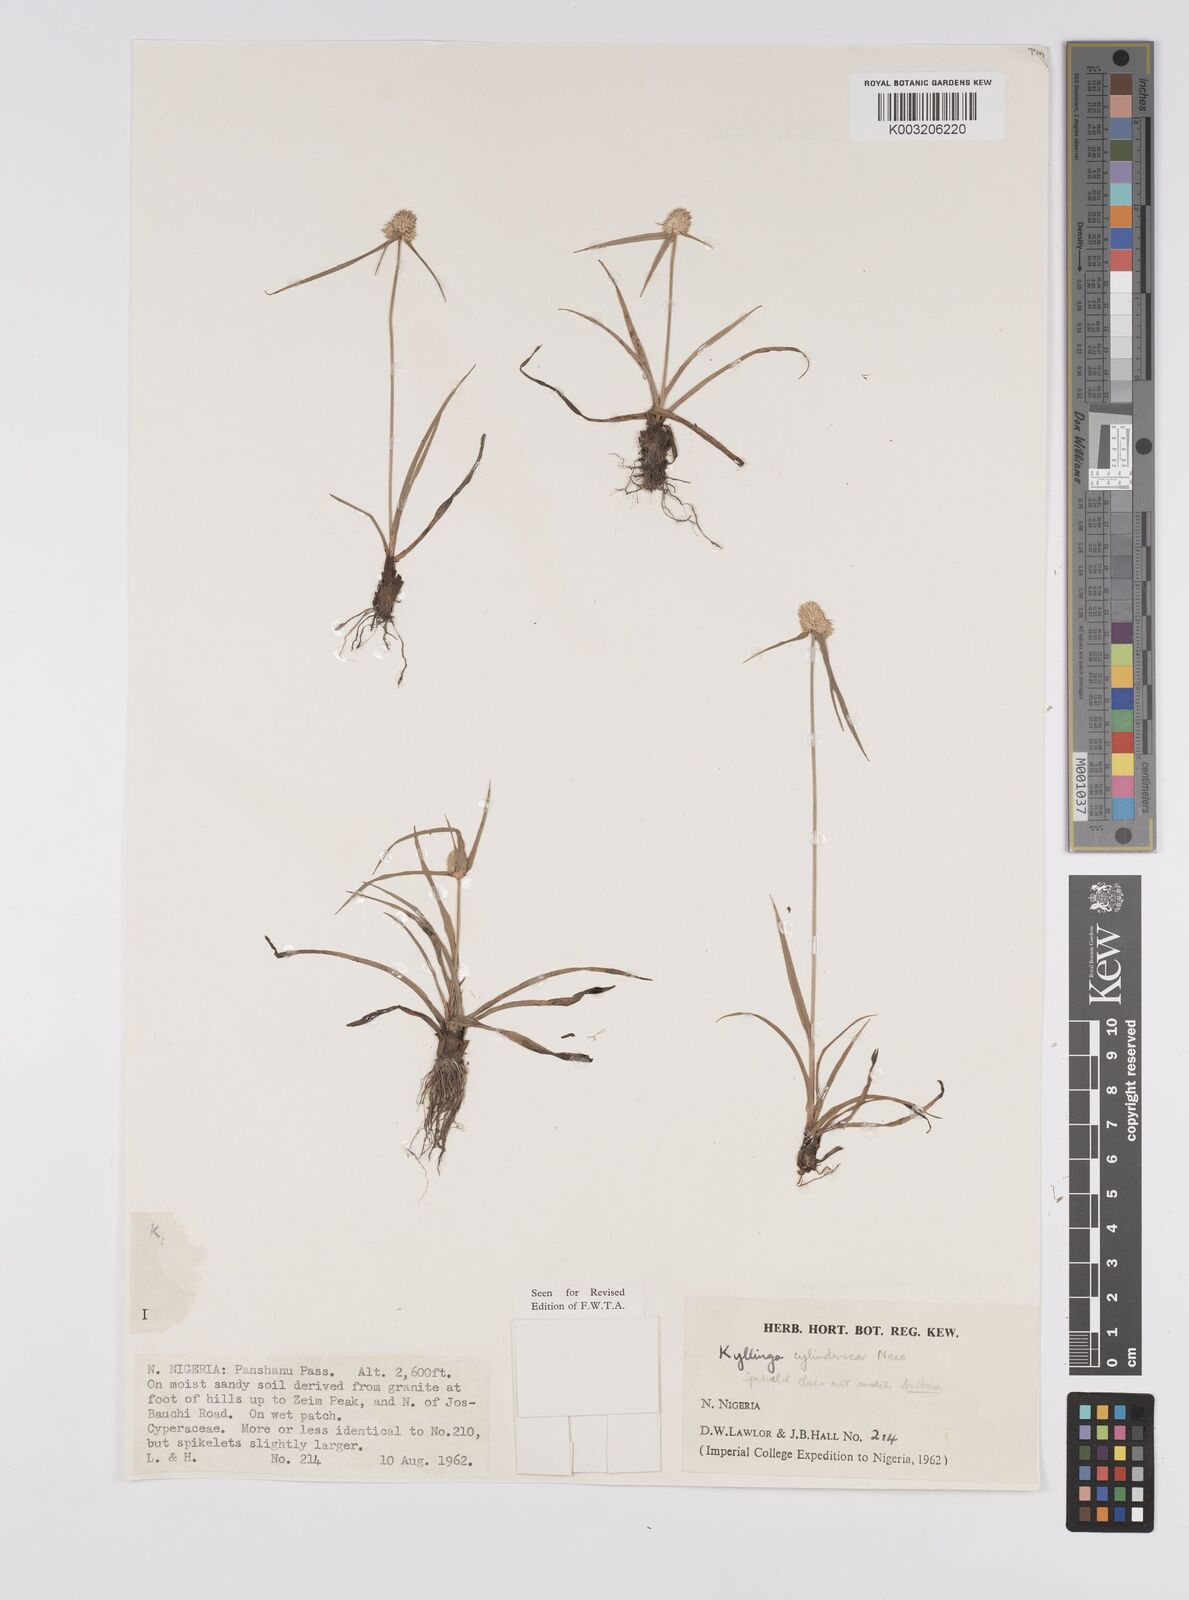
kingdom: Plantae
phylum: Tracheophyta
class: Liliopsida
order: Poales
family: Cyperaceae
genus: Cyperus
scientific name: Cyperus
